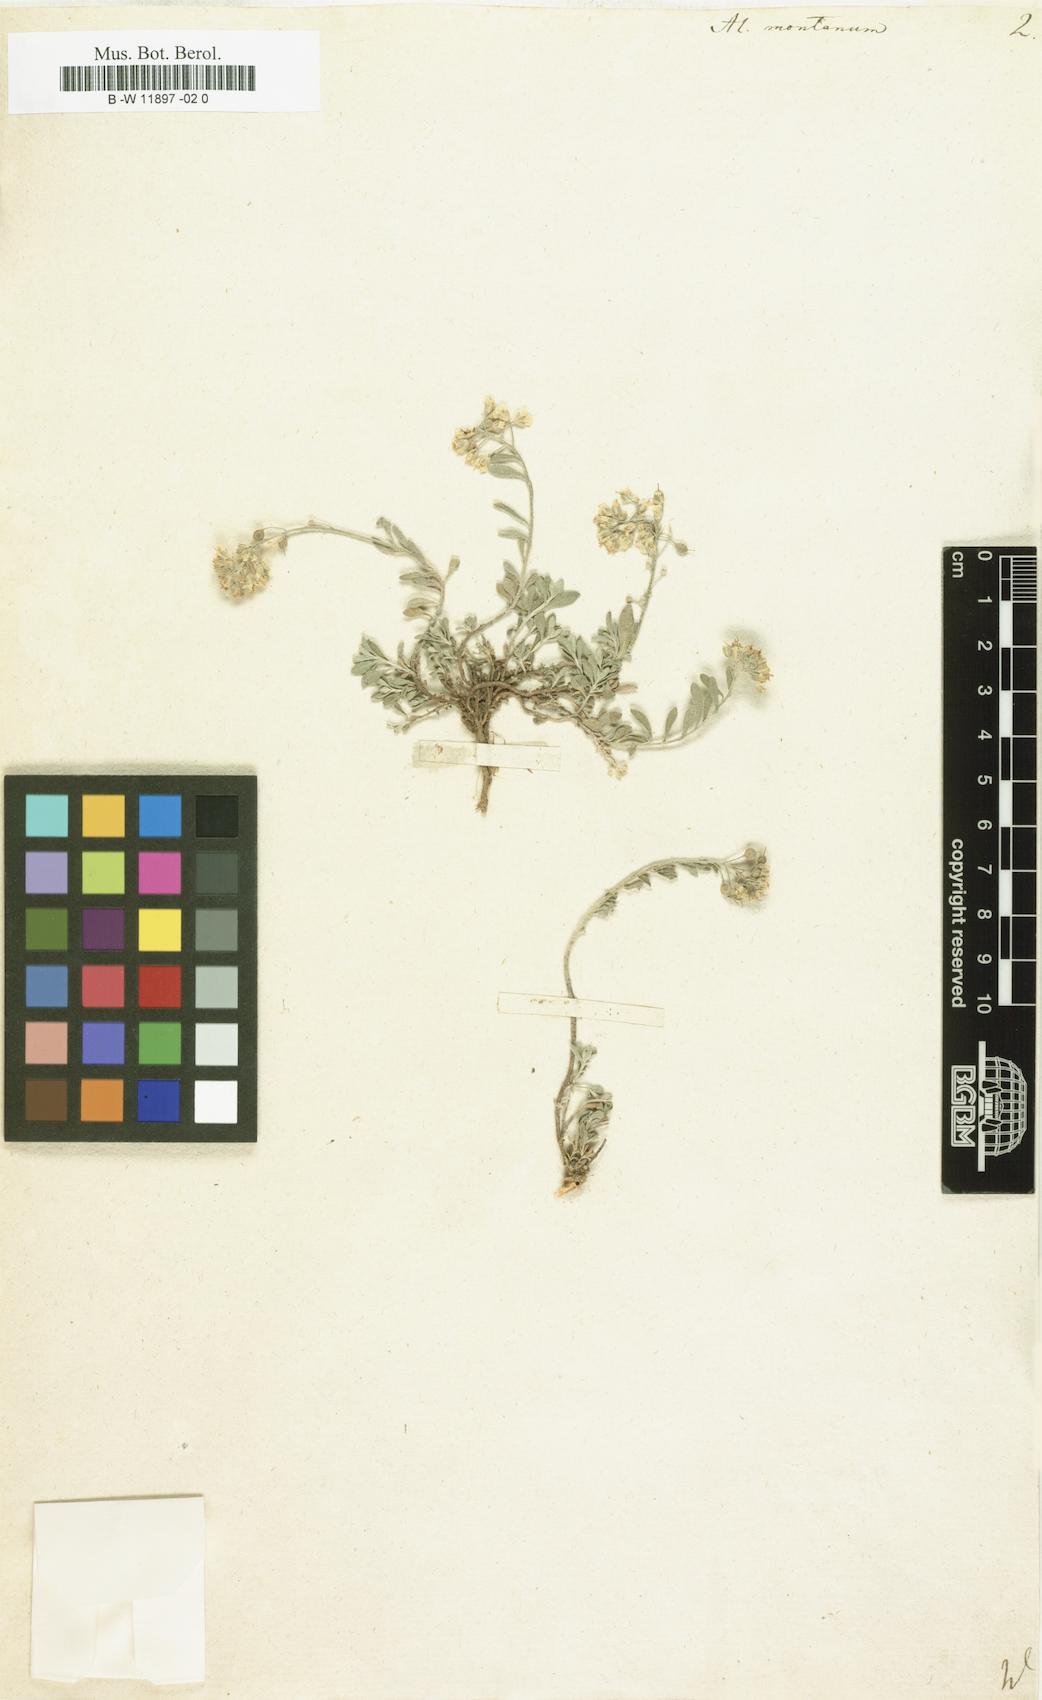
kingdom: Plantae
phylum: Tracheophyta
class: Magnoliopsida
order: Brassicales
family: Brassicaceae
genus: Alyssum
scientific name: Alyssum montanum
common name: Mountain alison
